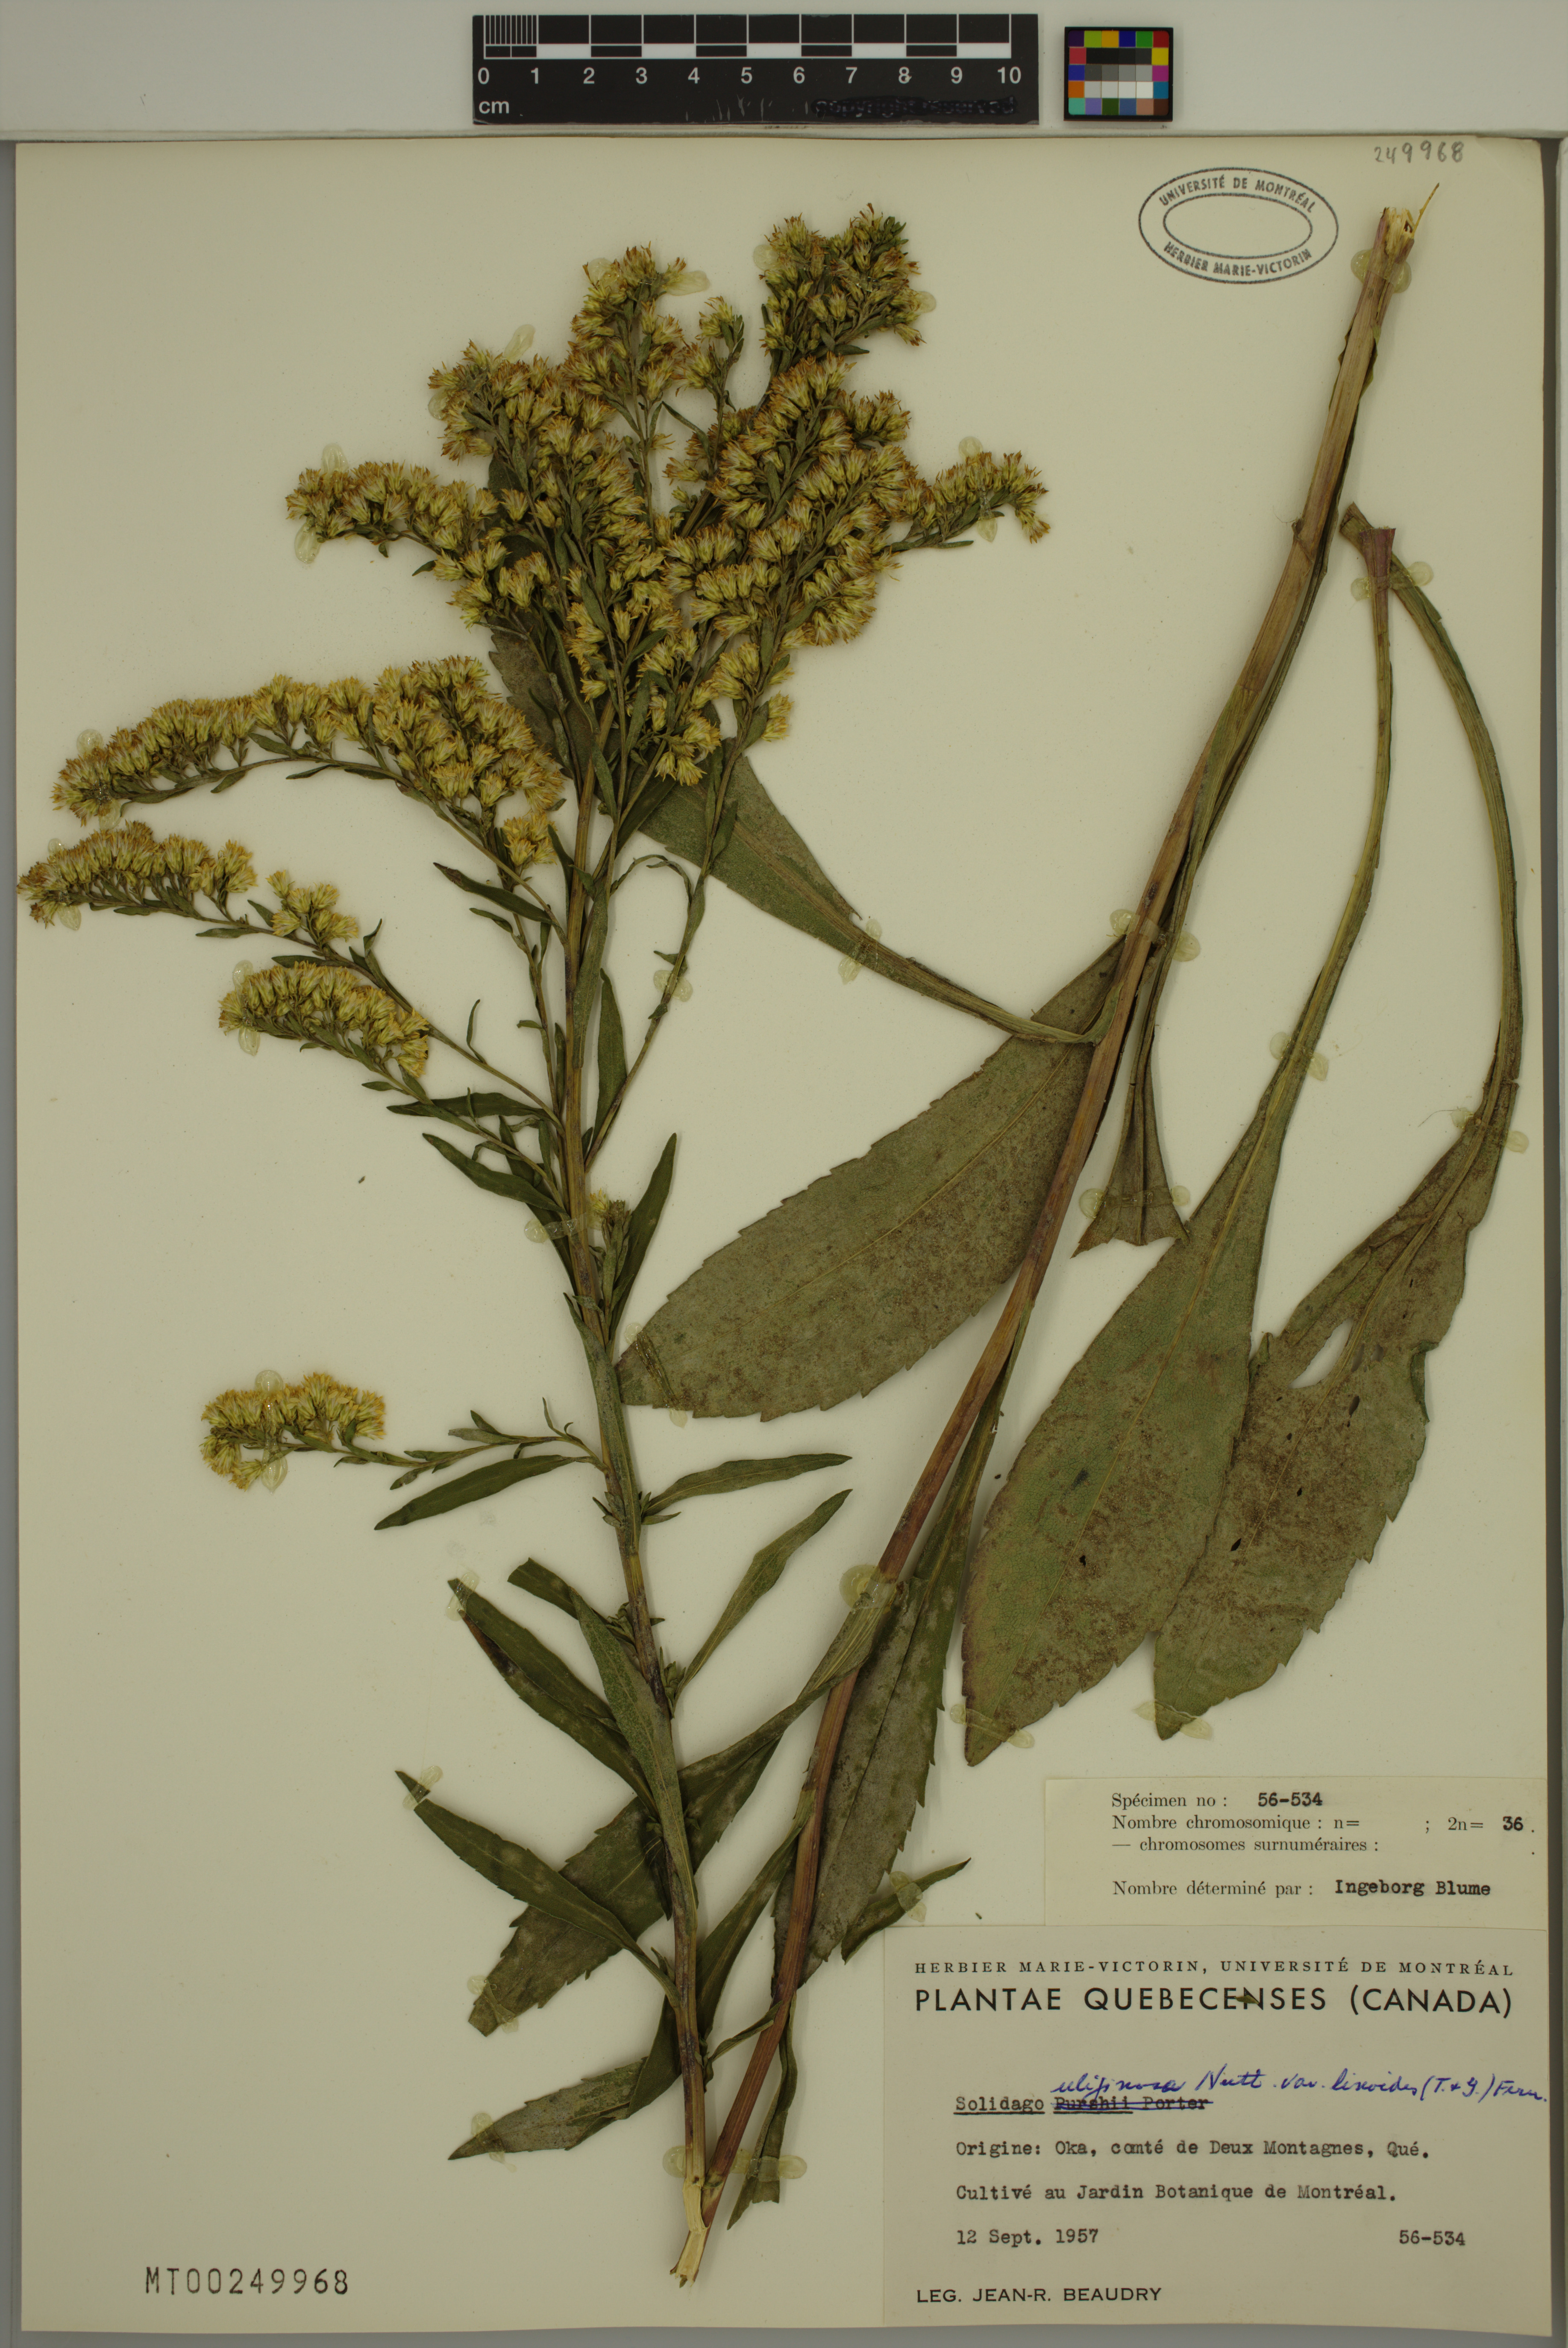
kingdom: Plantae
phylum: Tracheophyta
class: Magnoliopsida
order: Asterales
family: Asteraceae
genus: Solidago
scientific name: Solidago uliginosa
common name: Bog goldenrod
